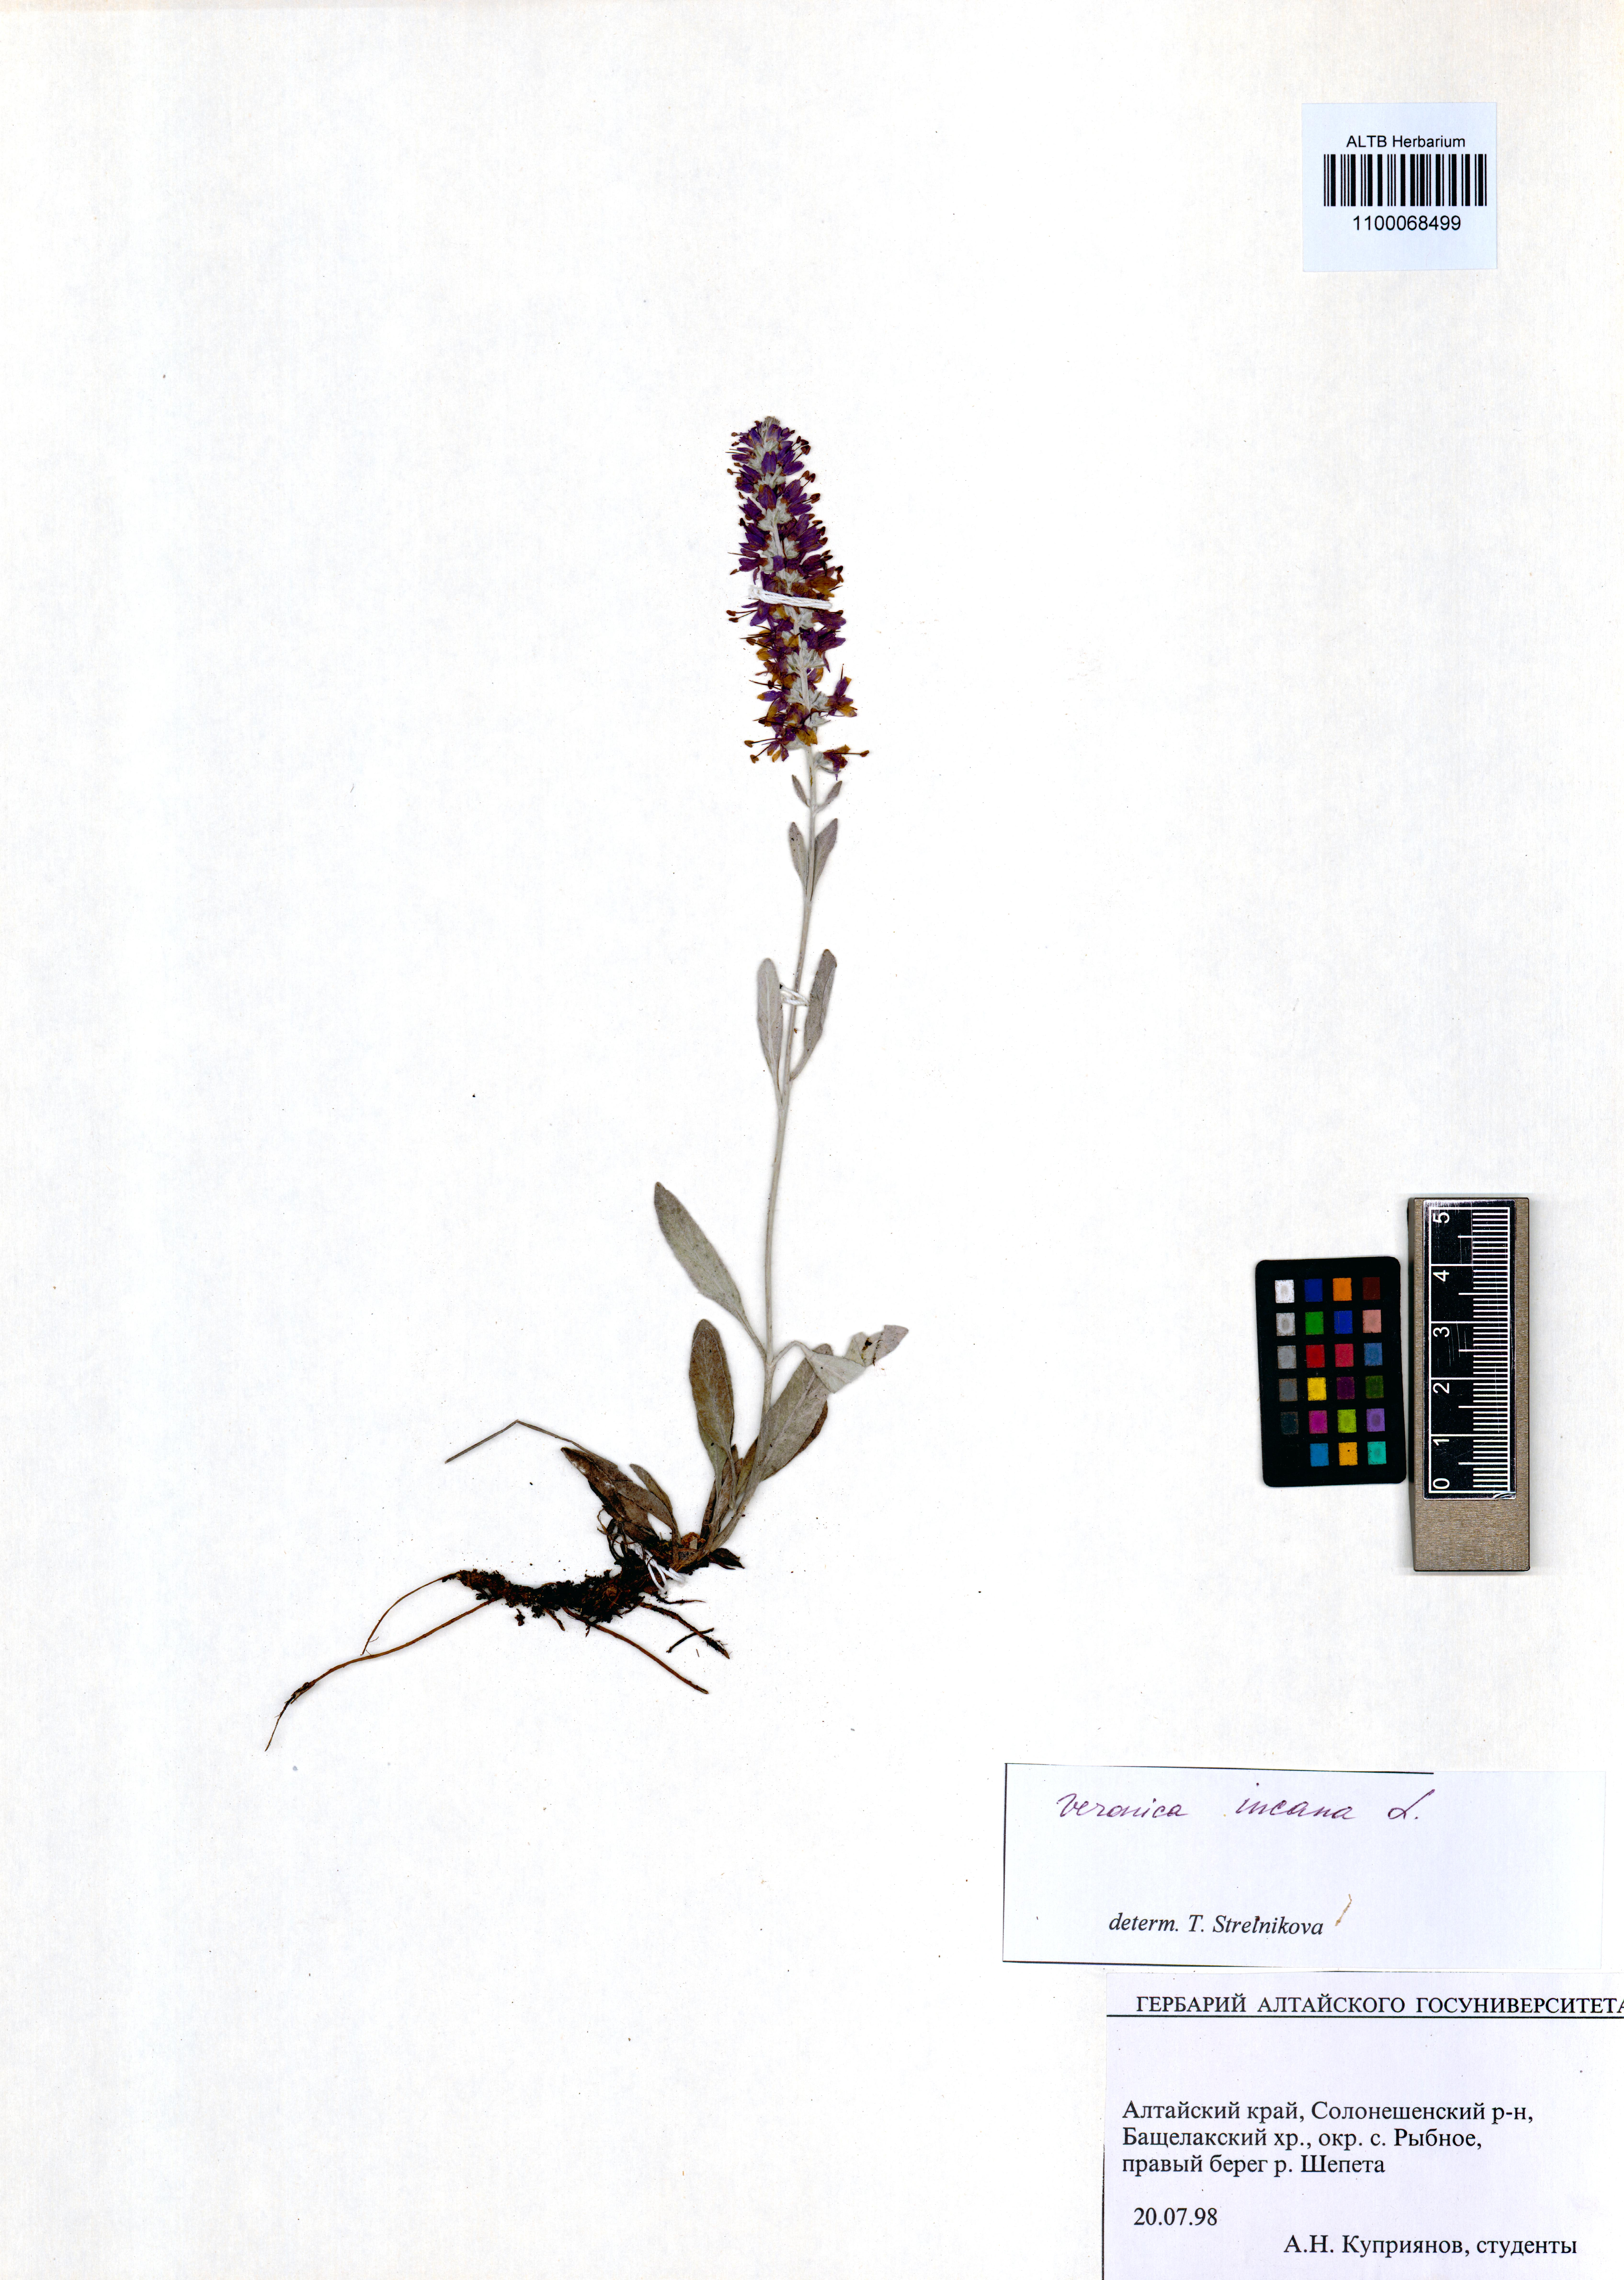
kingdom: Plantae
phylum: Tracheophyta
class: Magnoliopsida
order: Lamiales
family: Plantaginaceae
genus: Veronica
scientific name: Veronica incana
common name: Silver speedwell
